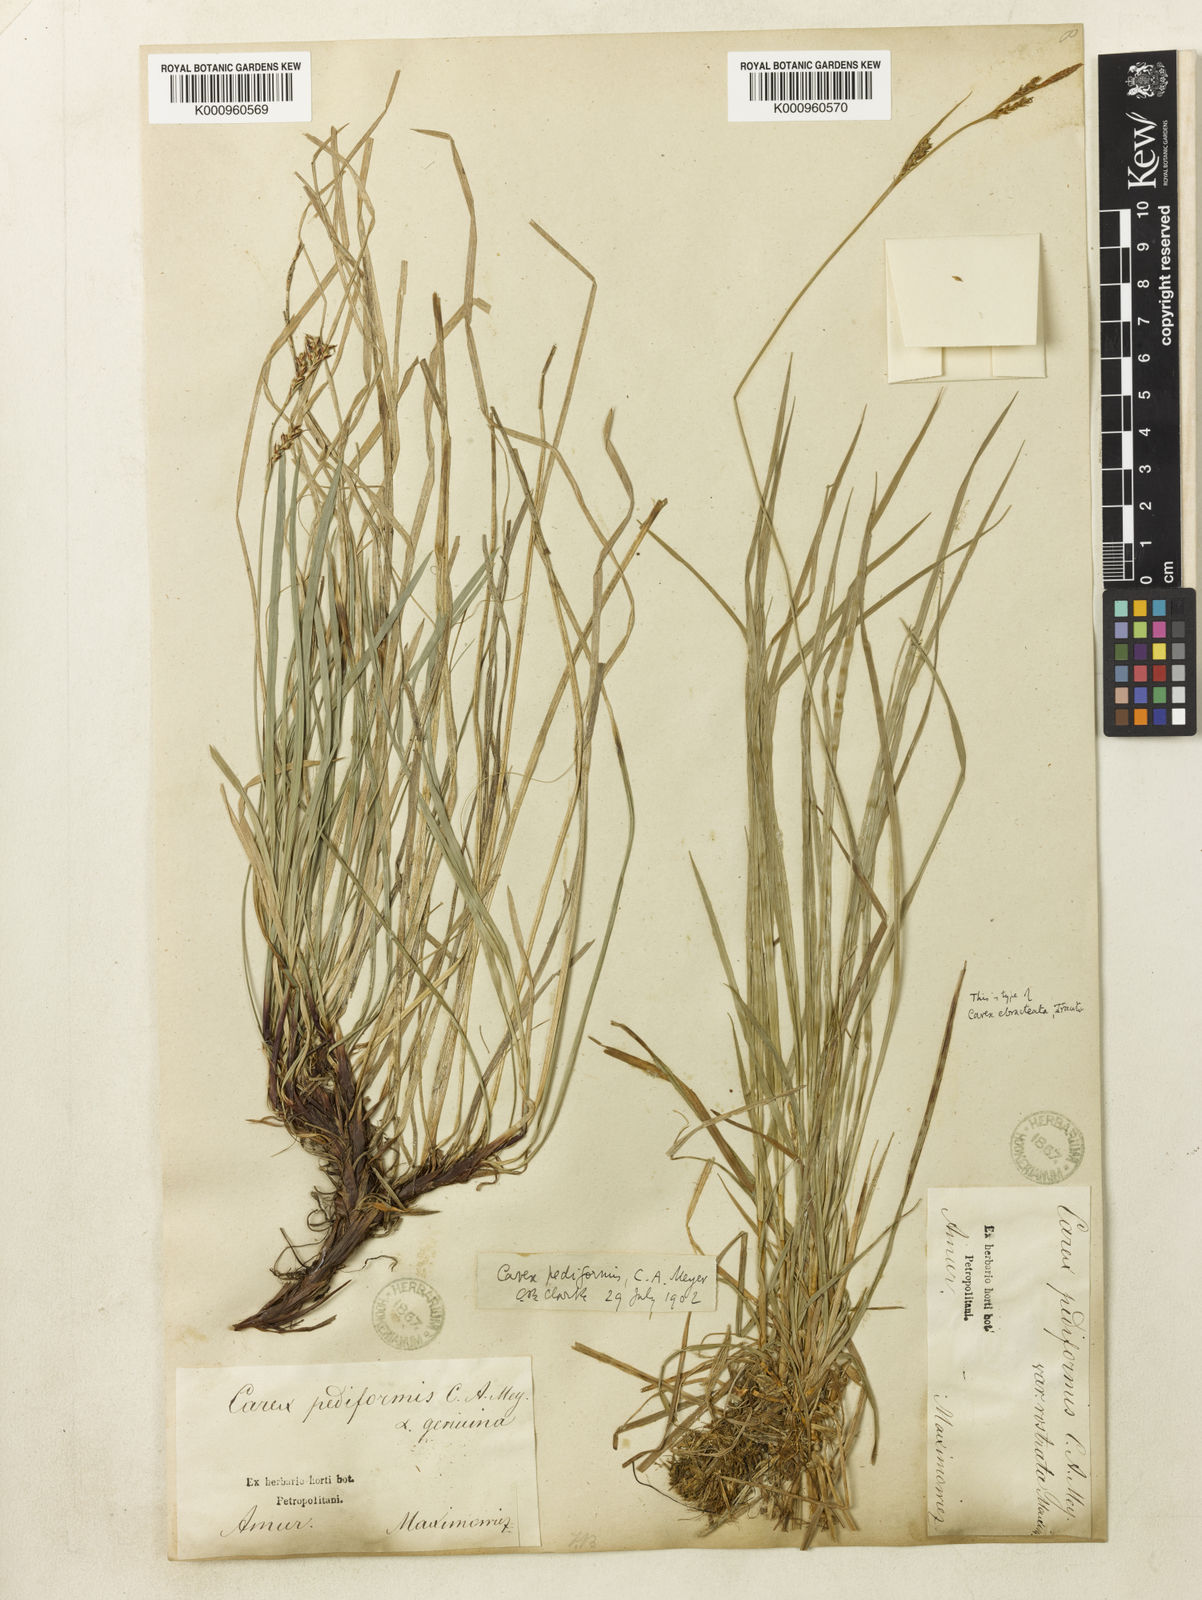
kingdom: Plantae
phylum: Tracheophyta
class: Liliopsida
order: Poales
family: Cyperaceae
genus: Carex
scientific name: Carex pediformis
